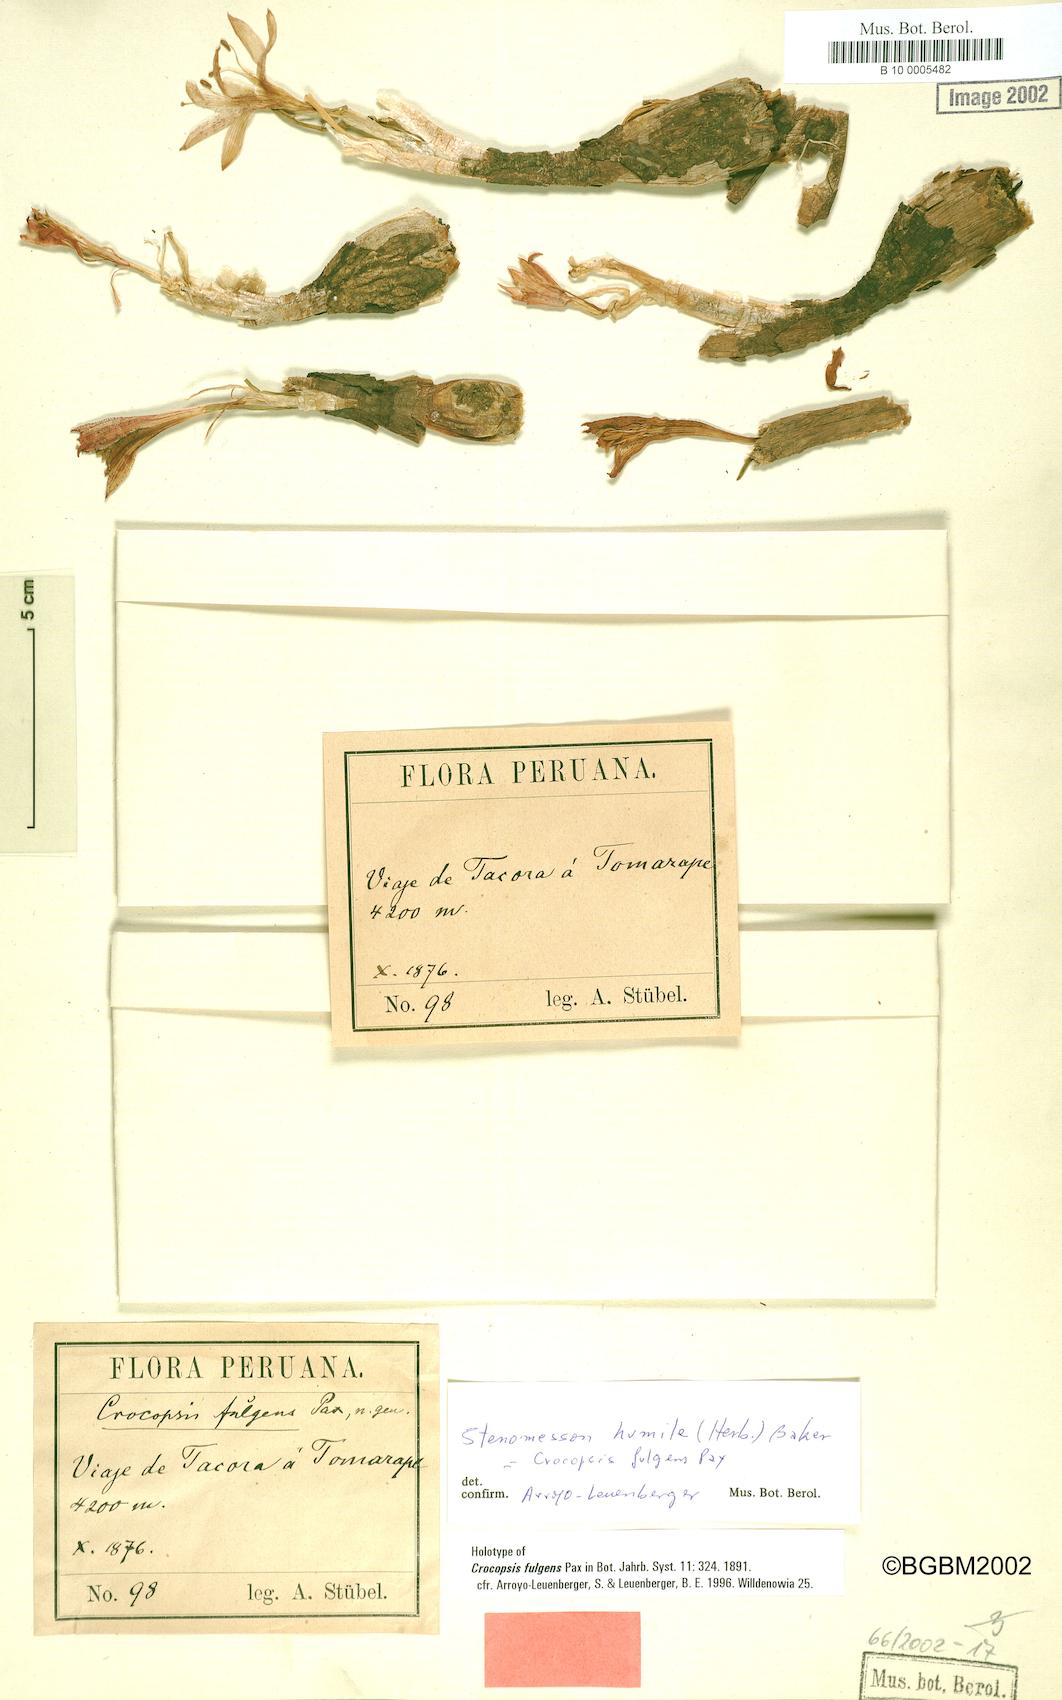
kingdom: Plantae
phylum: Tracheophyta
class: Liliopsida
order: Asparagales
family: Amaryllidaceae
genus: Clinanthus
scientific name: Clinanthus humilis
